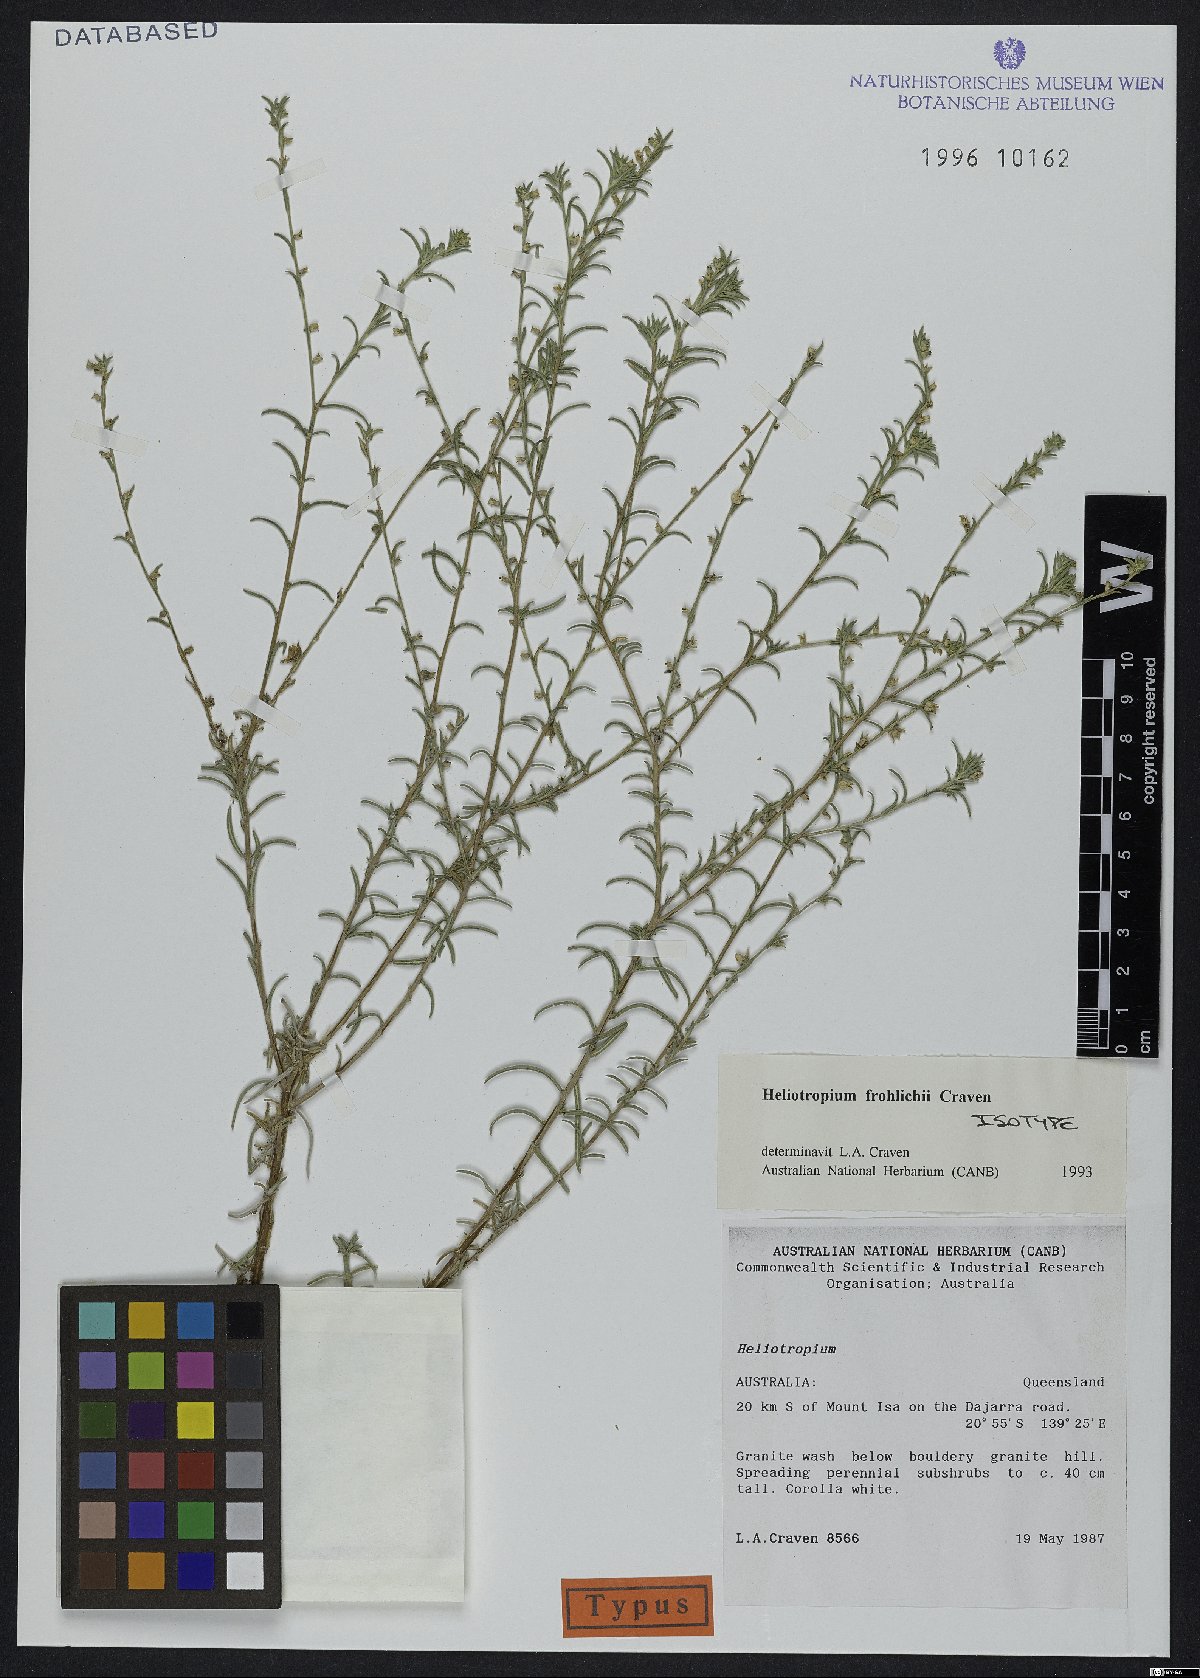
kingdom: Plantae
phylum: Tracheophyta
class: Magnoliopsida
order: Boraginales
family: Heliotropiaceae
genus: Euploca
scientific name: Euploca frohlichii
